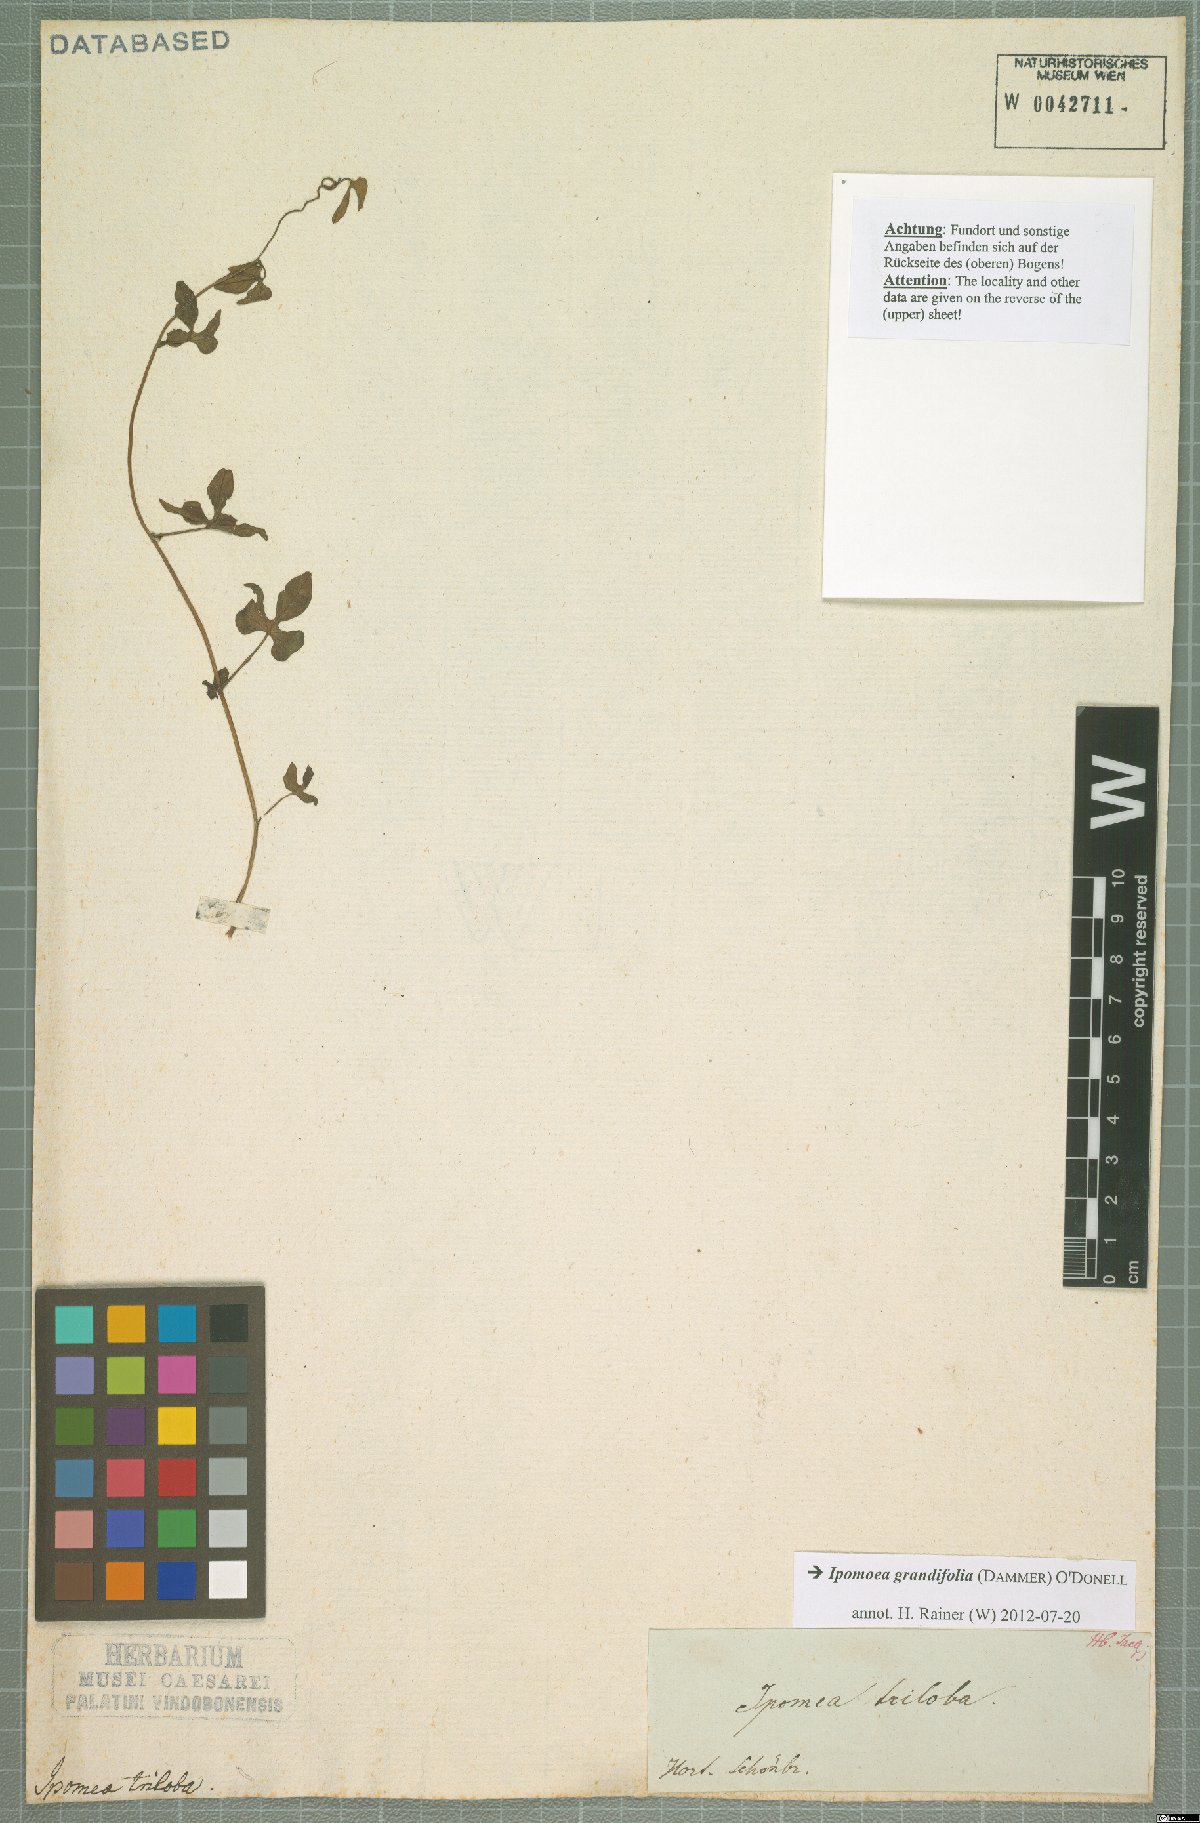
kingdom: Plantae
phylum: Tracheophyta
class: Magnoliopsida
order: Solanales
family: Convolvulaceae
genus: Ipomoea
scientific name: Ipomoea grandifolia
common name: Aiea morning glory
